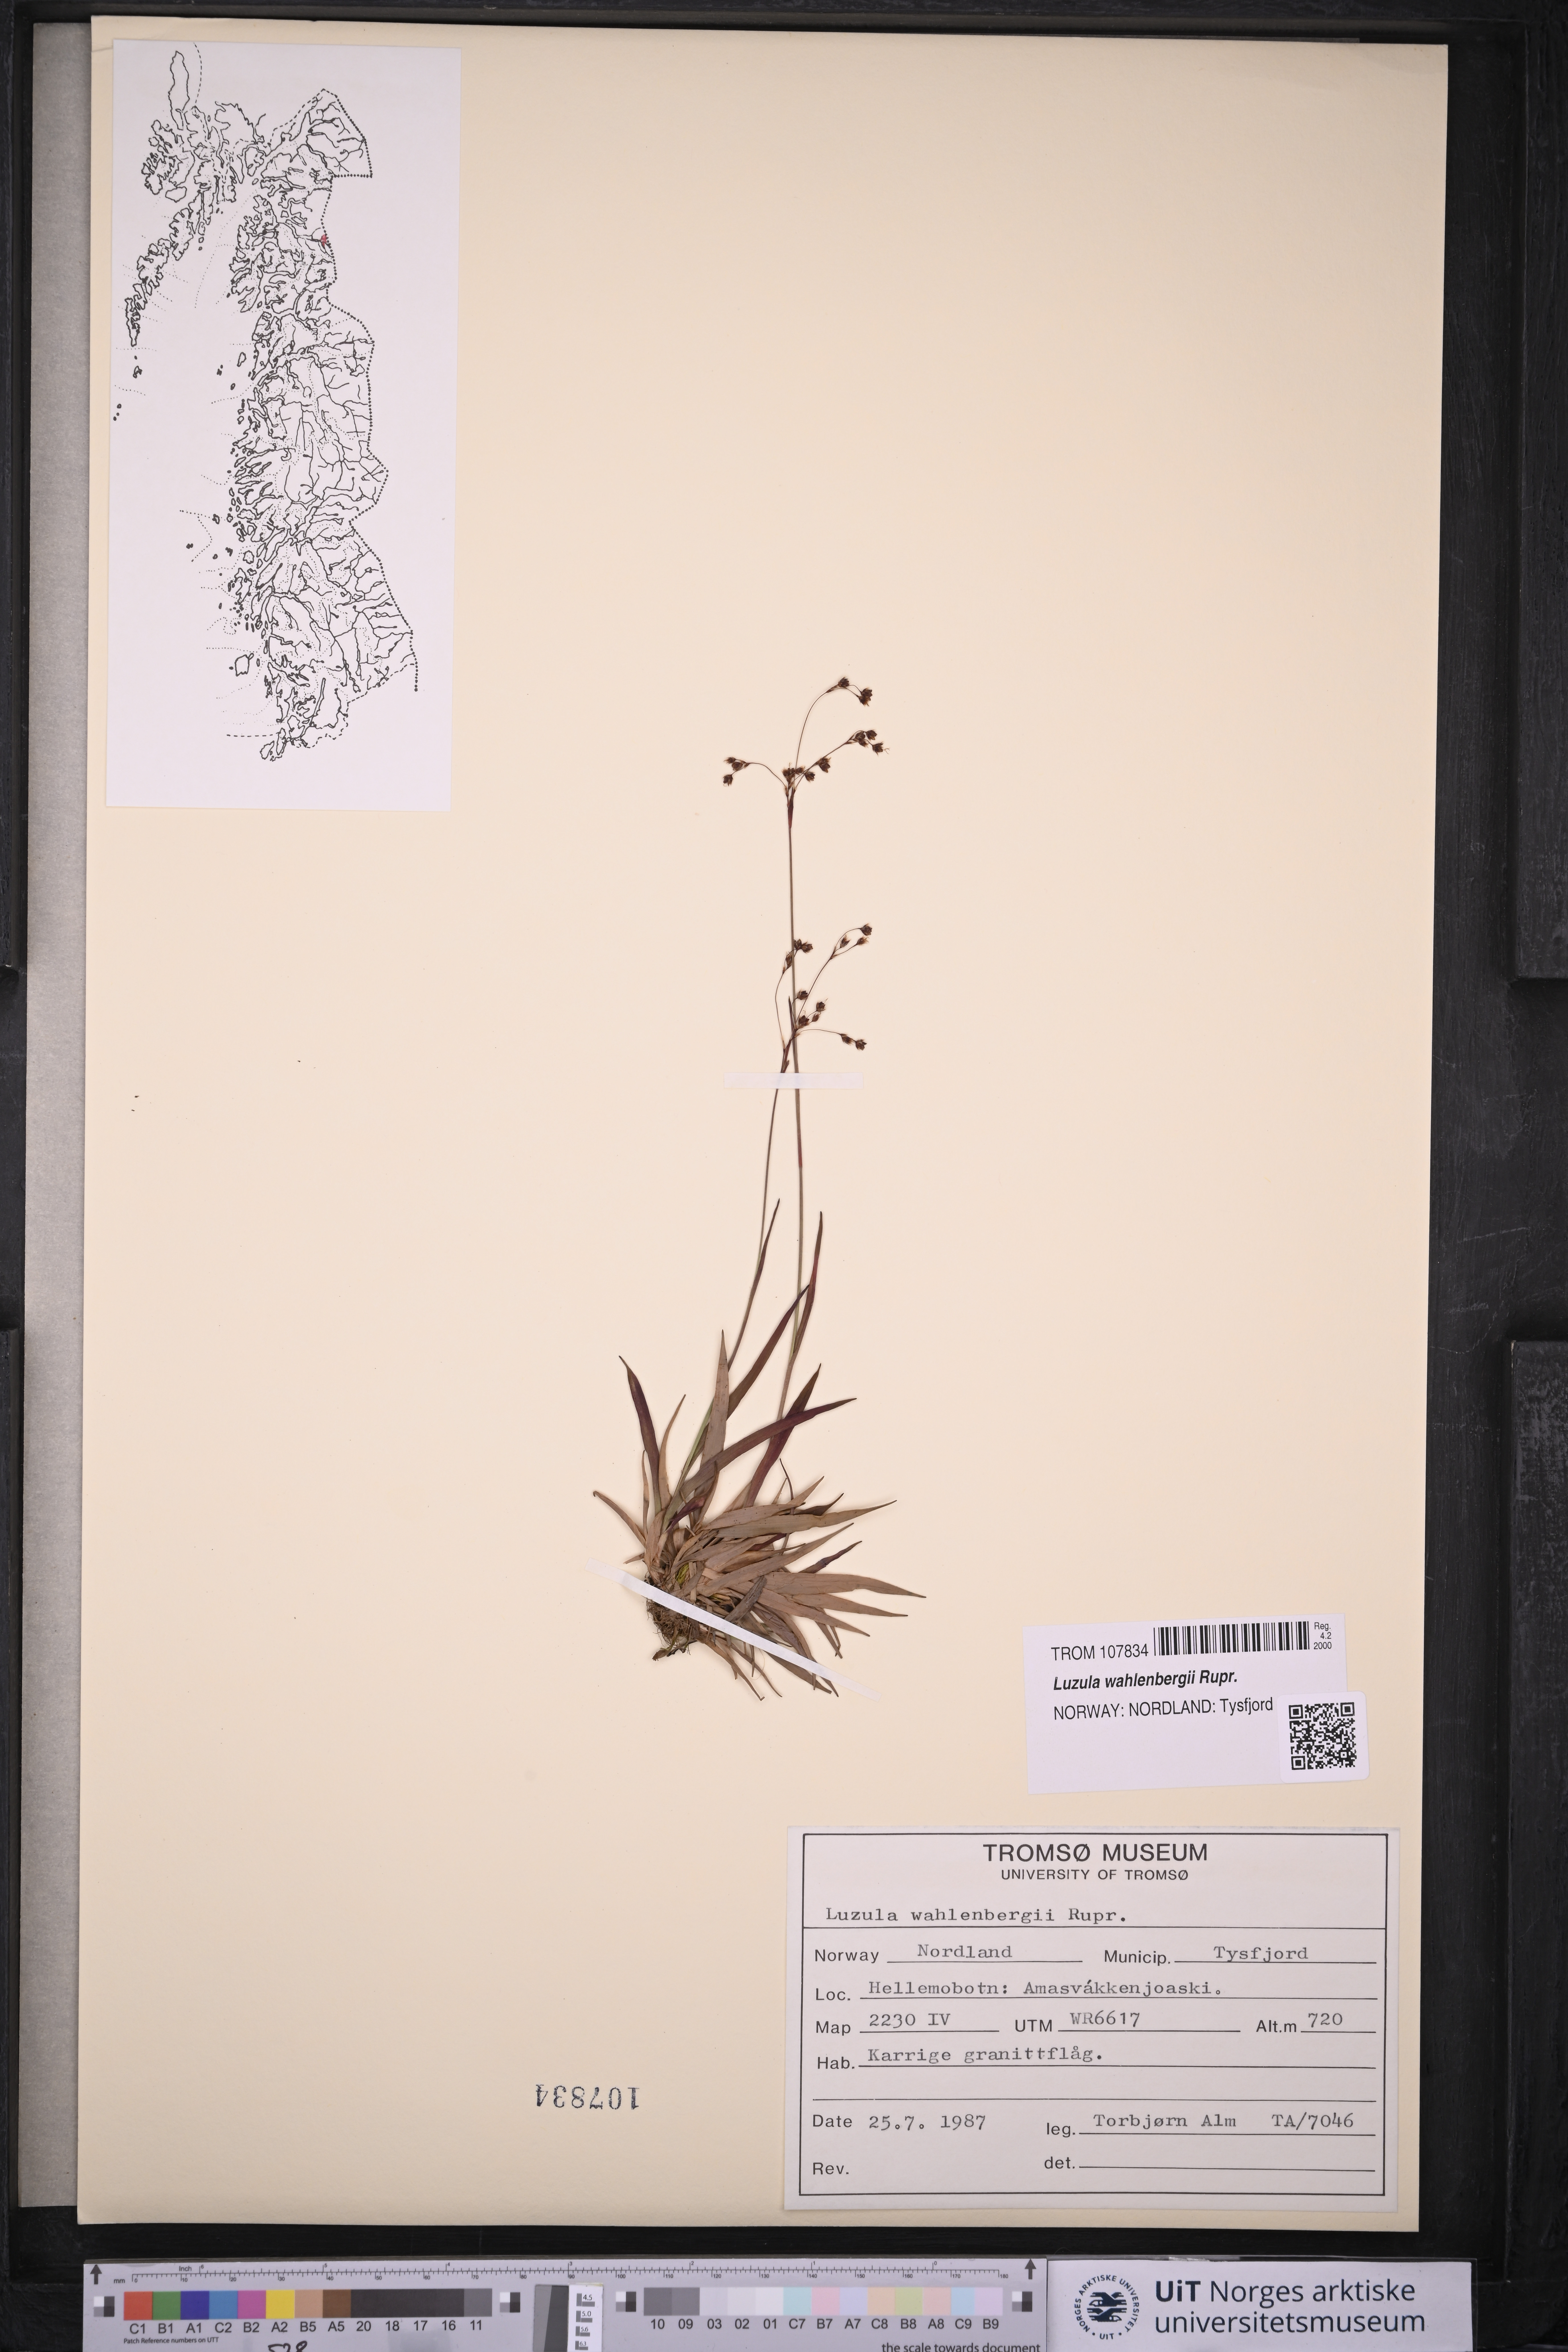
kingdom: Plantae
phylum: Tracheophyta
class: Liliopsida
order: Poales
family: Juncaceae
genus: Luzula
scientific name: Luzula wahlenbergii
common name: Wahlenberg's wood-rush
